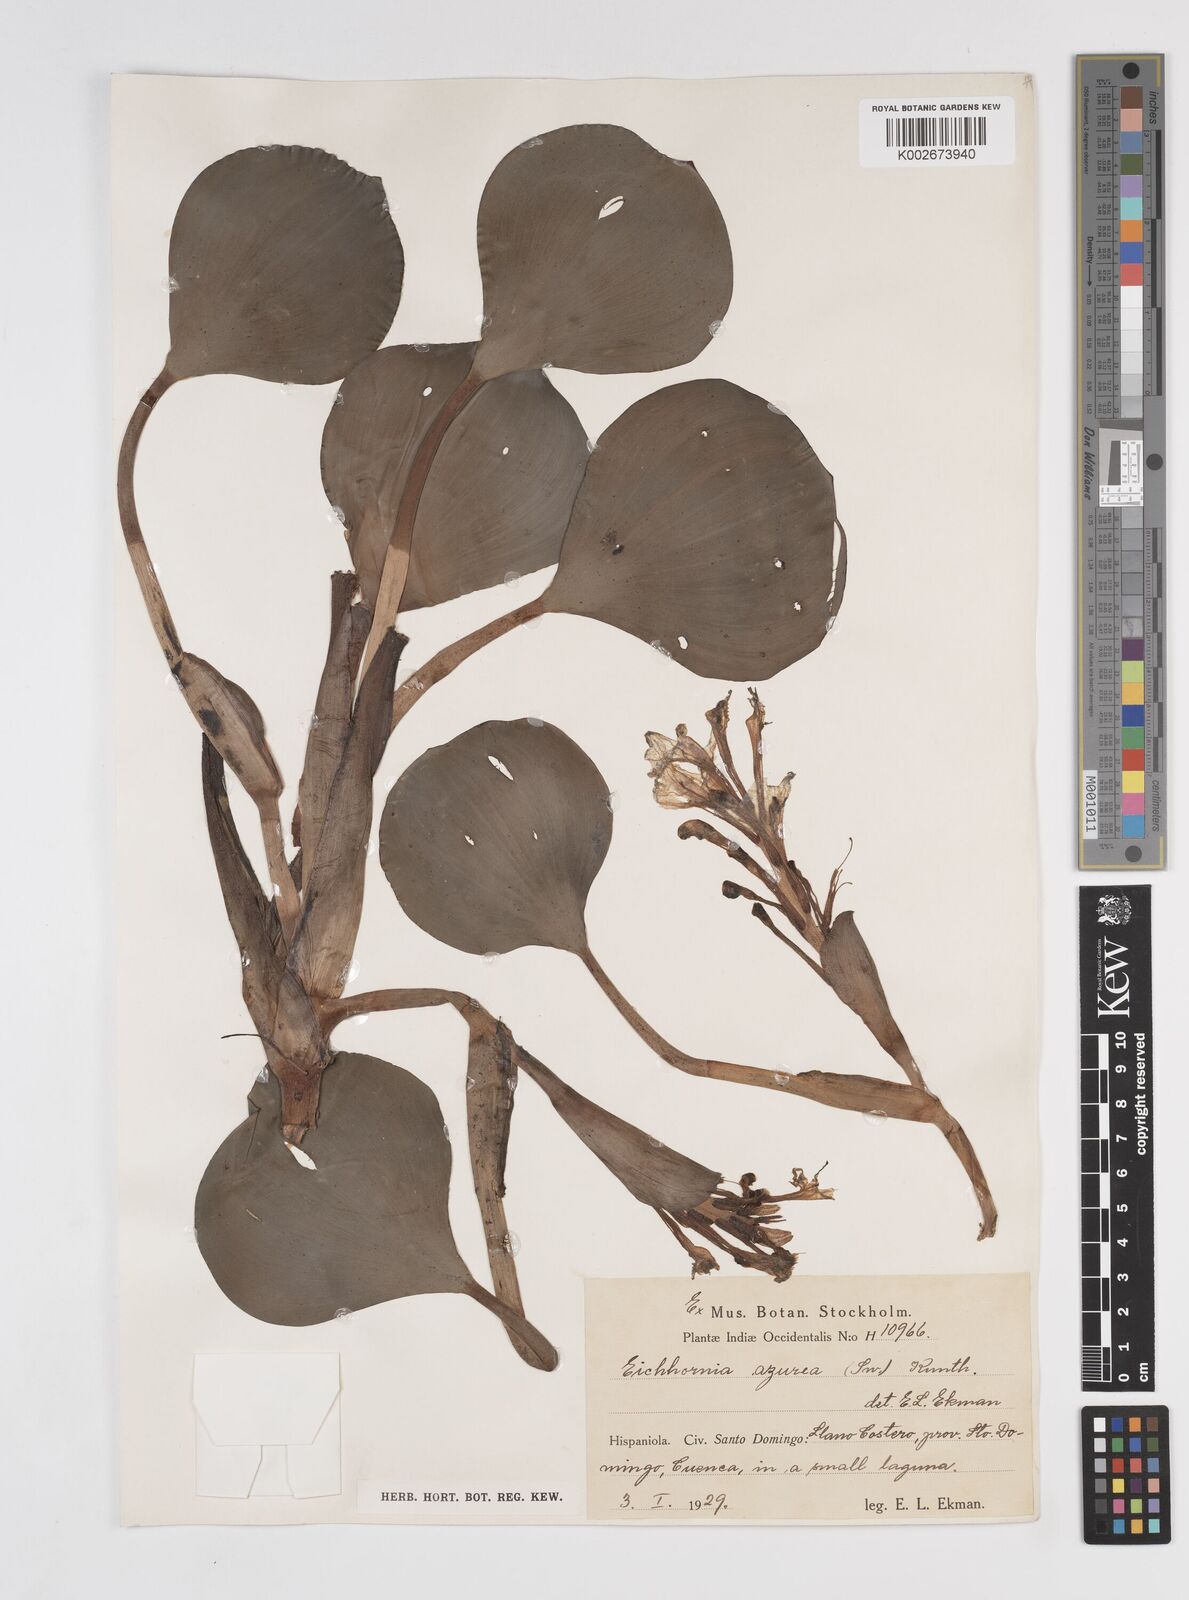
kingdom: Plantae
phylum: Tracheophyta
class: Liliopsida
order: Commelinales
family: Pontederiaceae
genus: Pontederia
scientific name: Pontederia azurea
